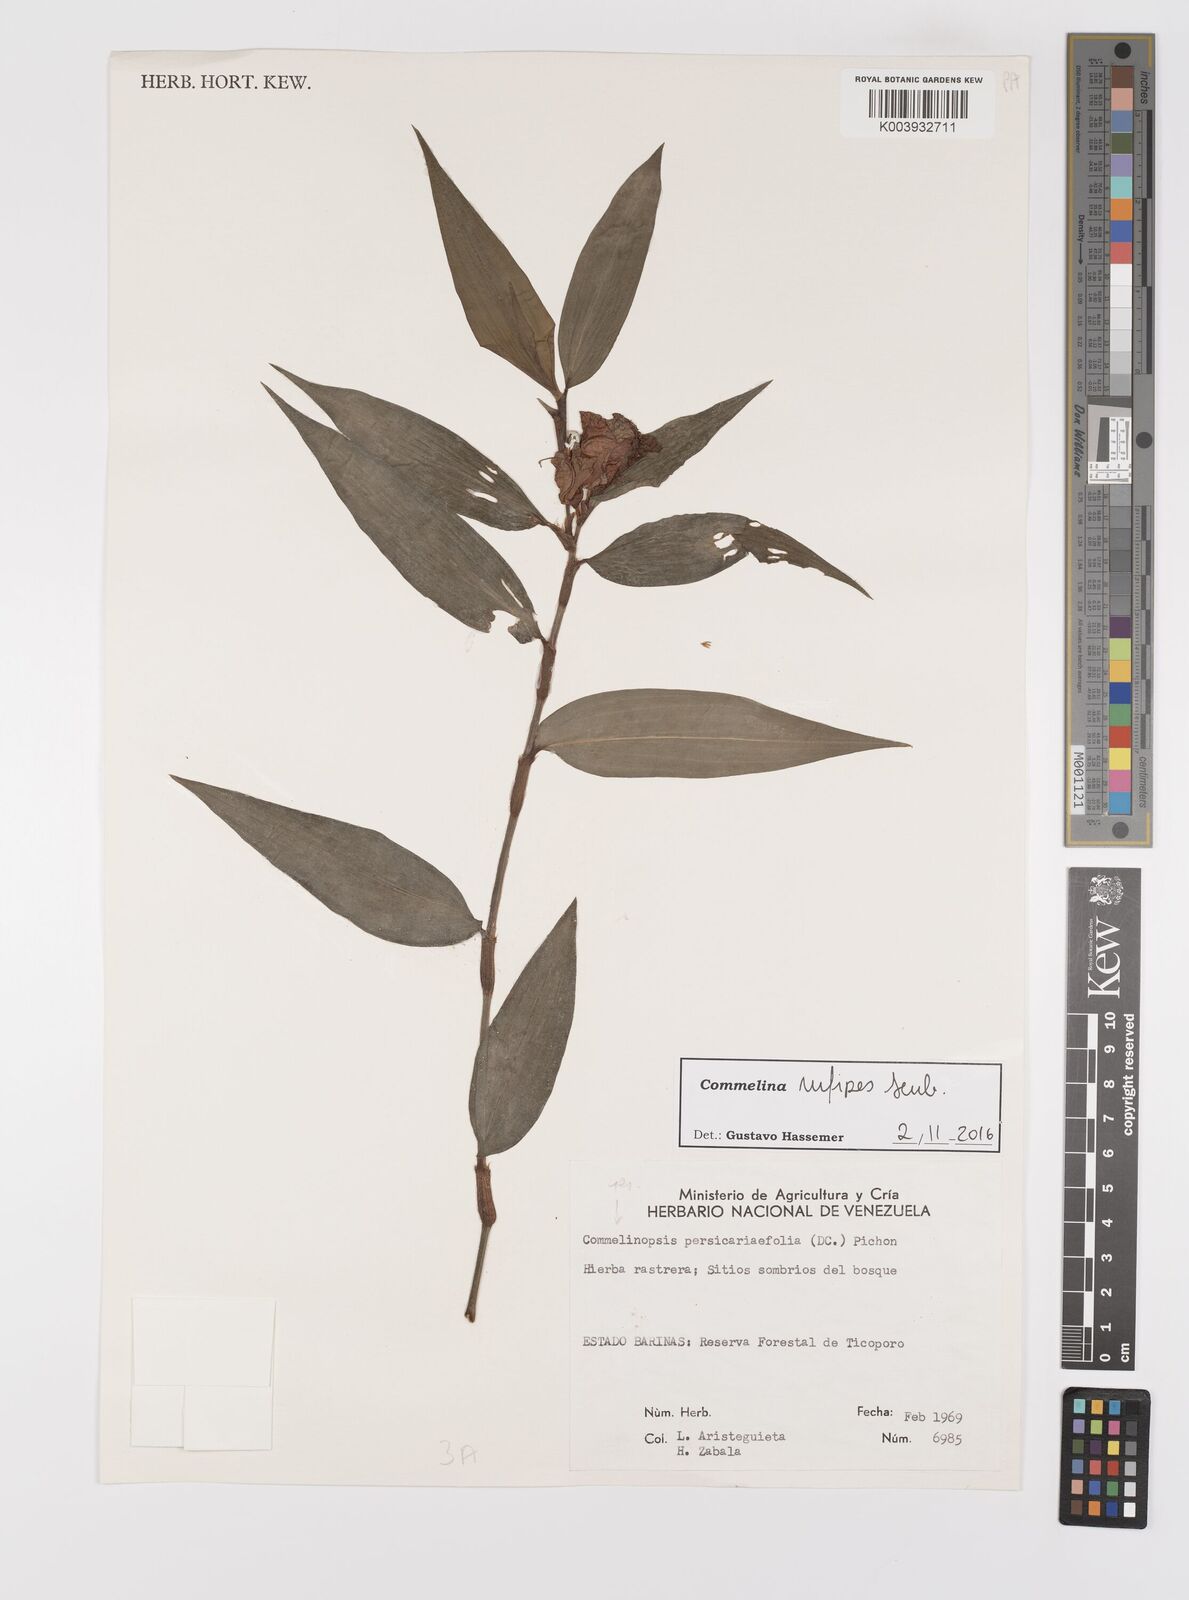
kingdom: Plantae
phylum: Tracheophyta
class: Liliopsida
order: Commelinales
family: Commelinaceae
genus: Commelina
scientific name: Commelina rufipes
